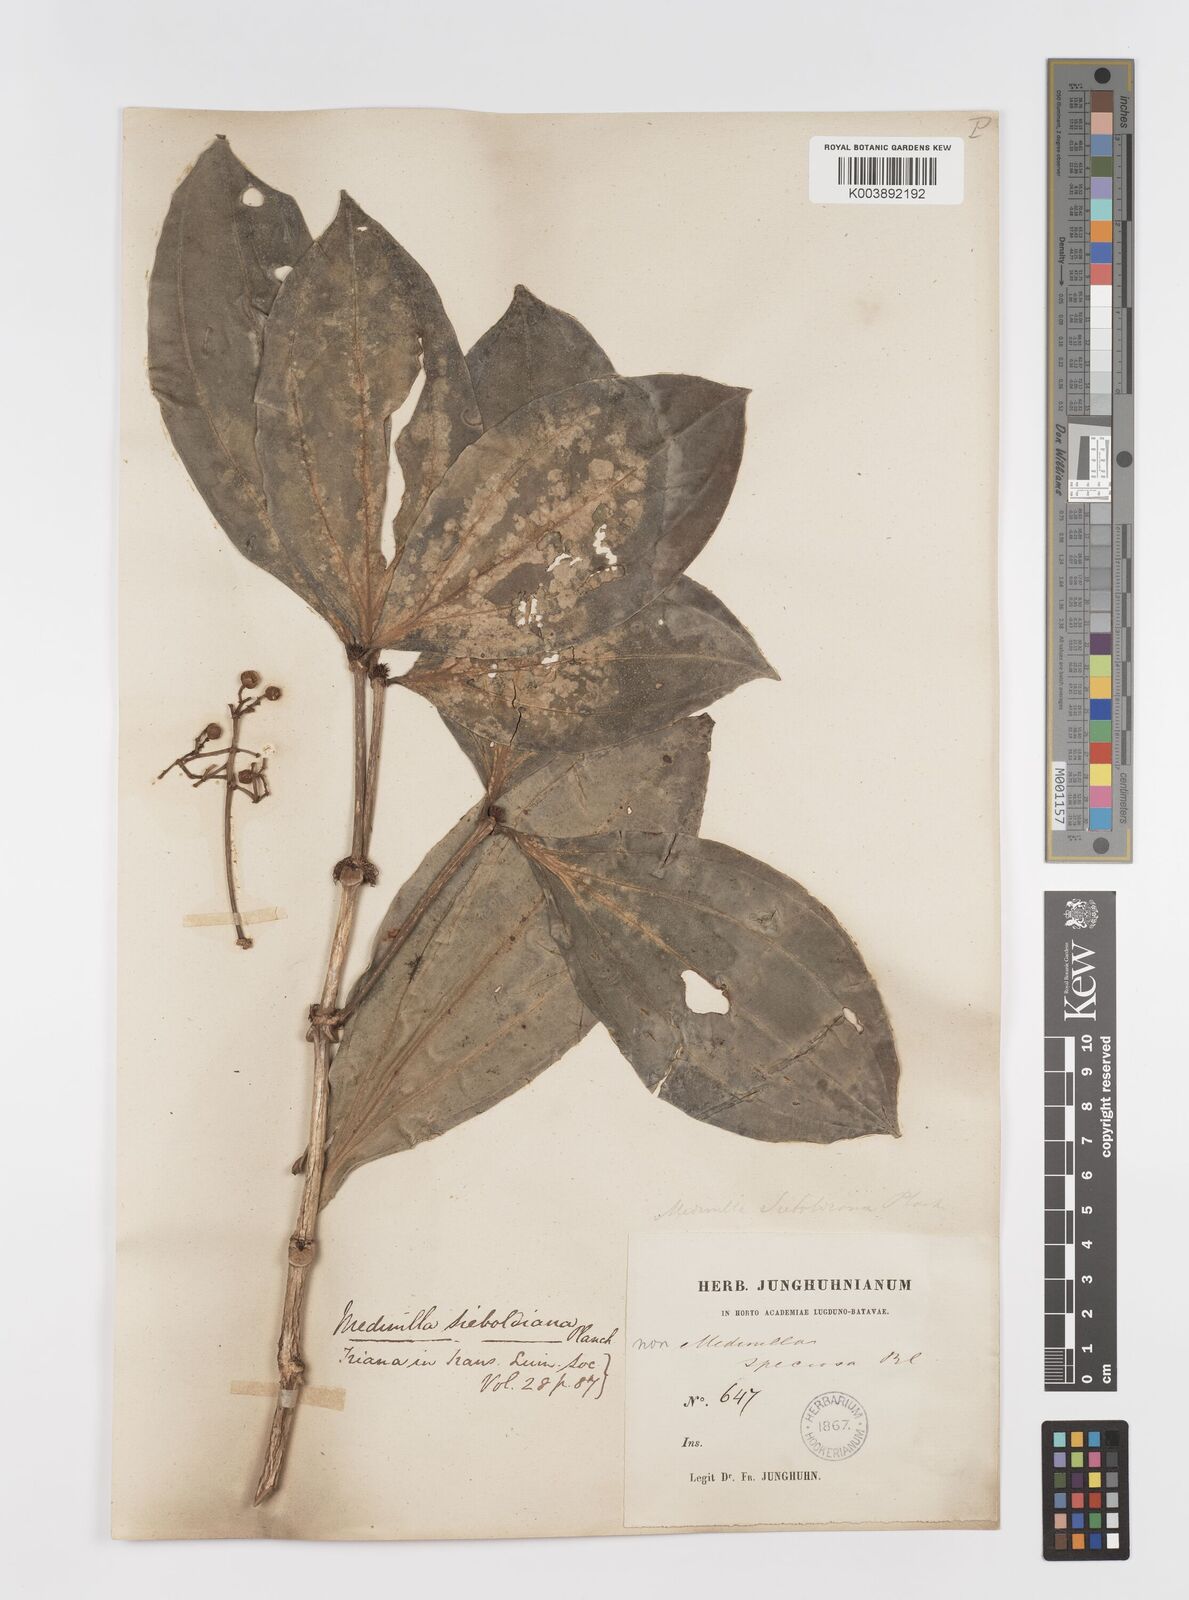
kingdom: Plantae
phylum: Tracheophyta
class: Magnoliopsida
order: Myrtales
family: Melastomataceae
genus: Medinilla
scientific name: Medinilla intermedia
